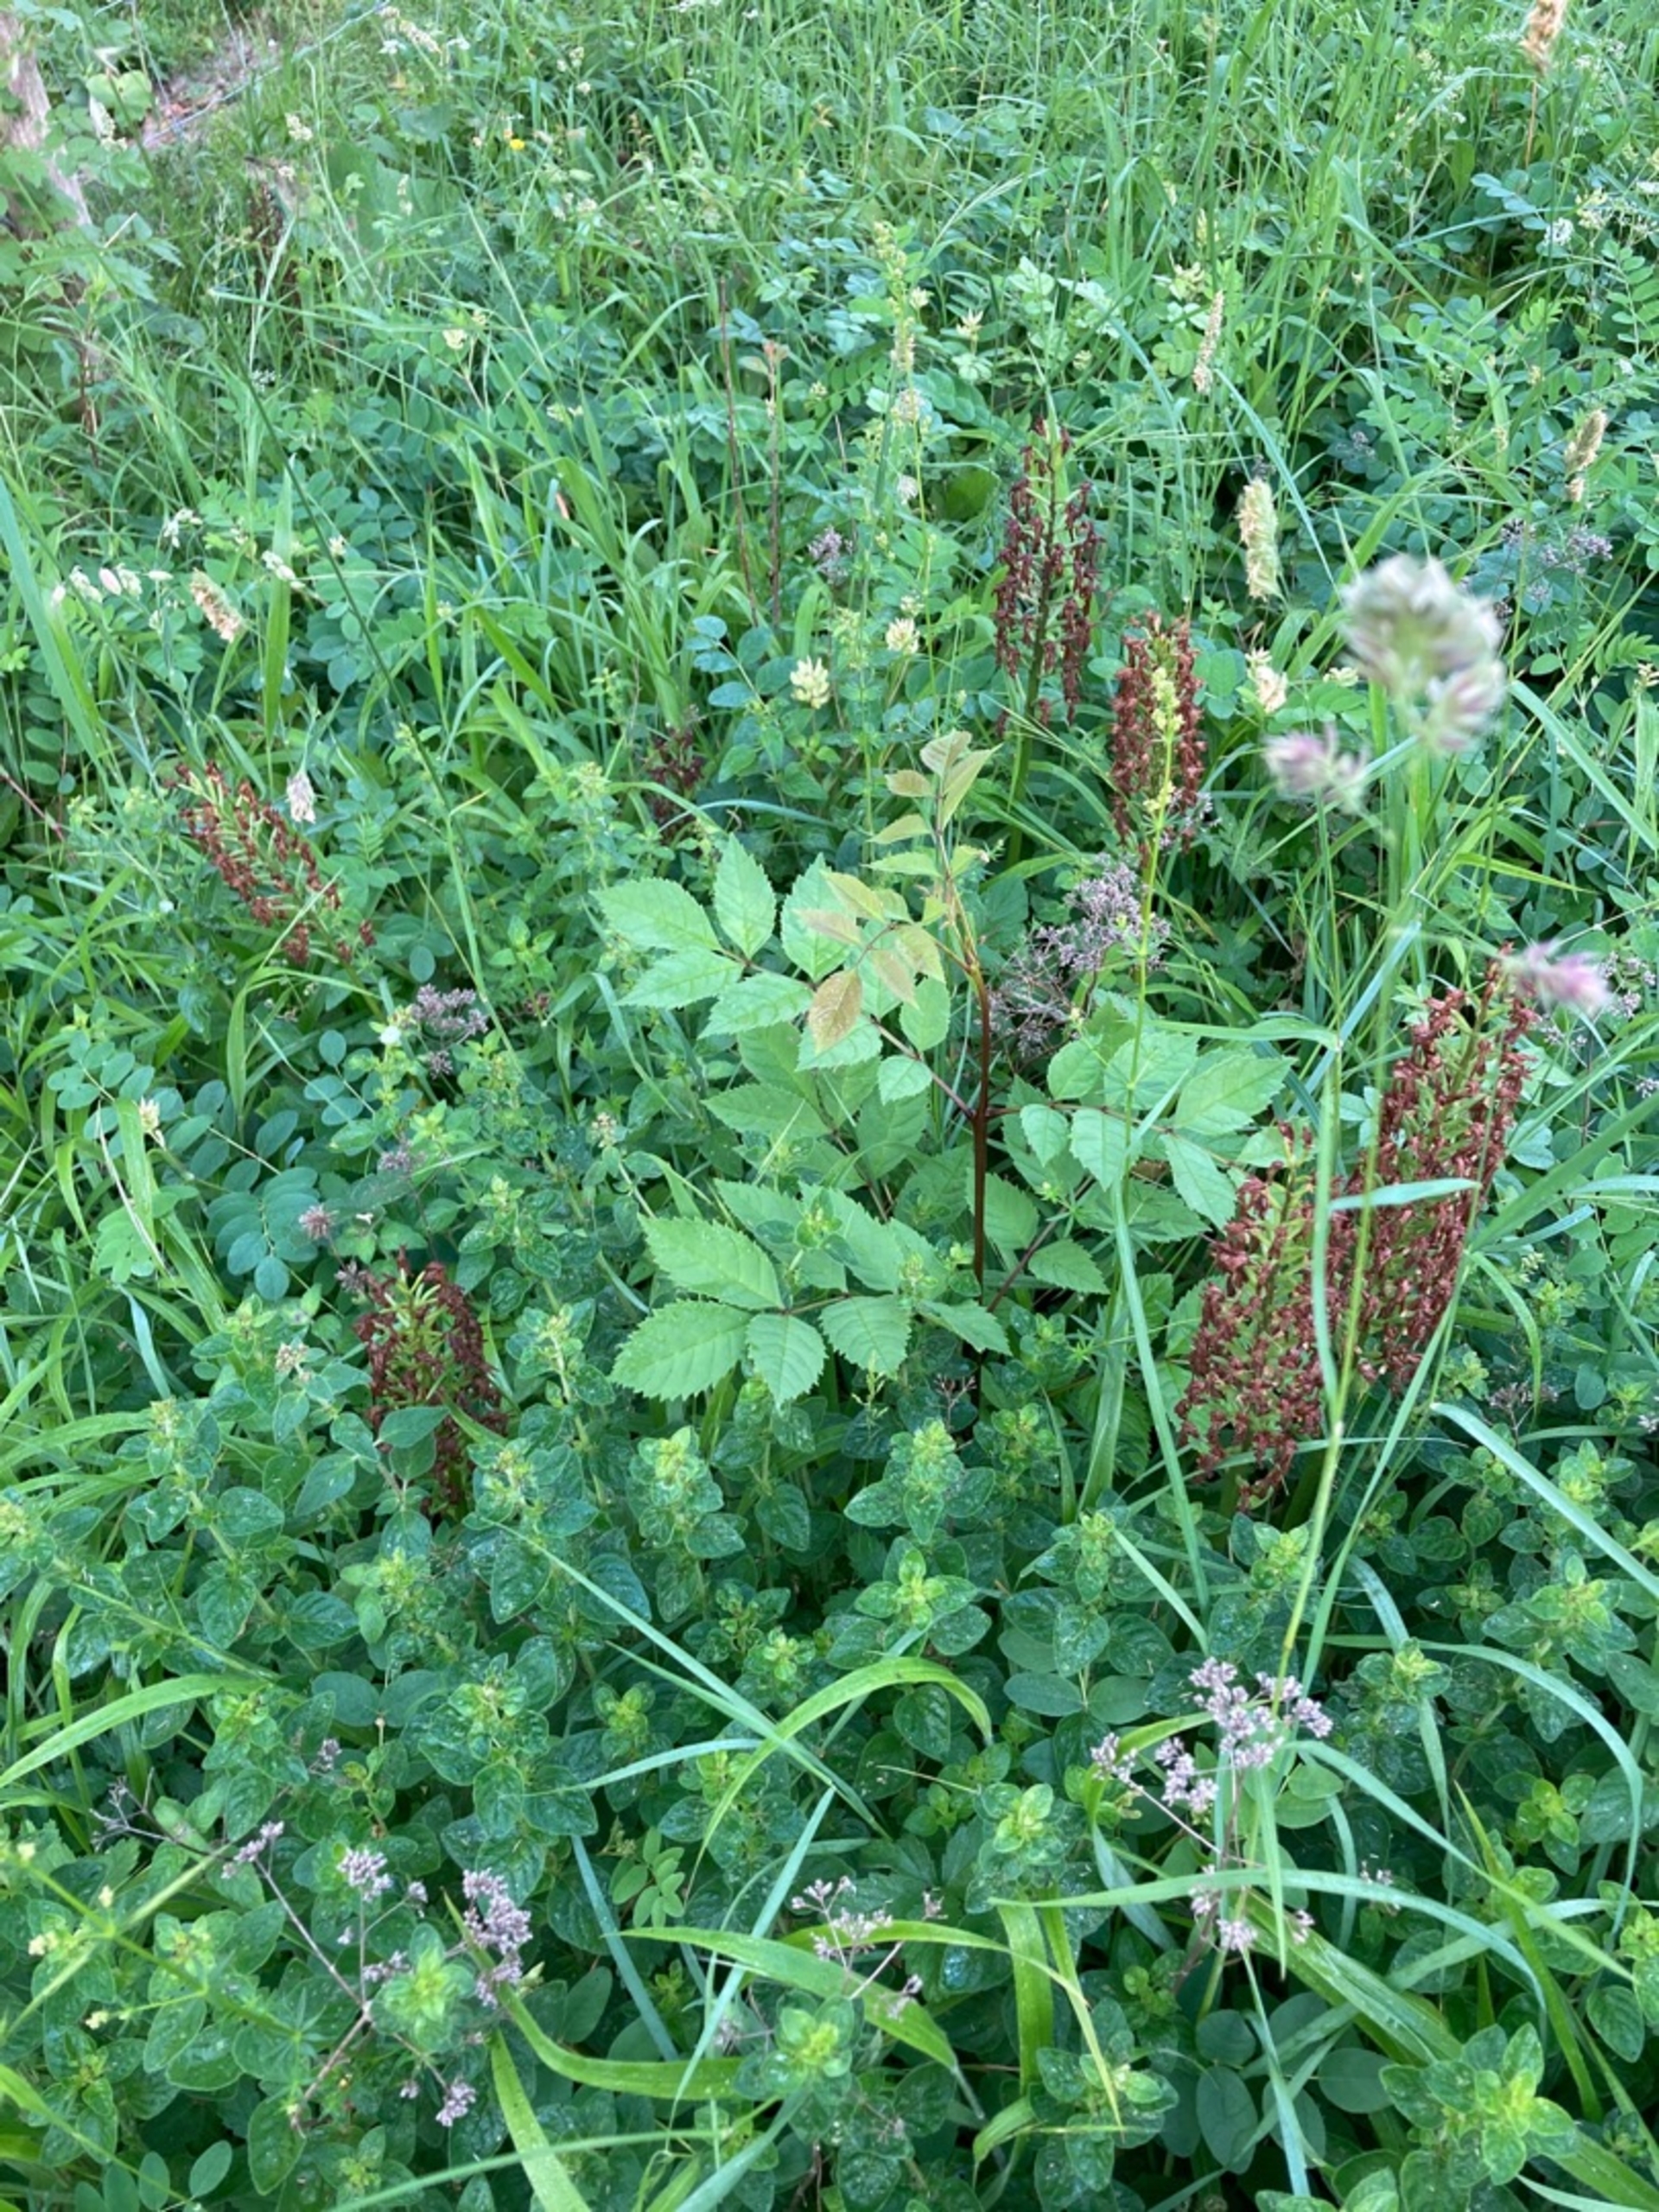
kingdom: Plantae
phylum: Tracheophyta
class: Liliopsida
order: Asparagales
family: Orchidaceae
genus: Orchis
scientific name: Orchis purpurea
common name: Stor gøgeurt
